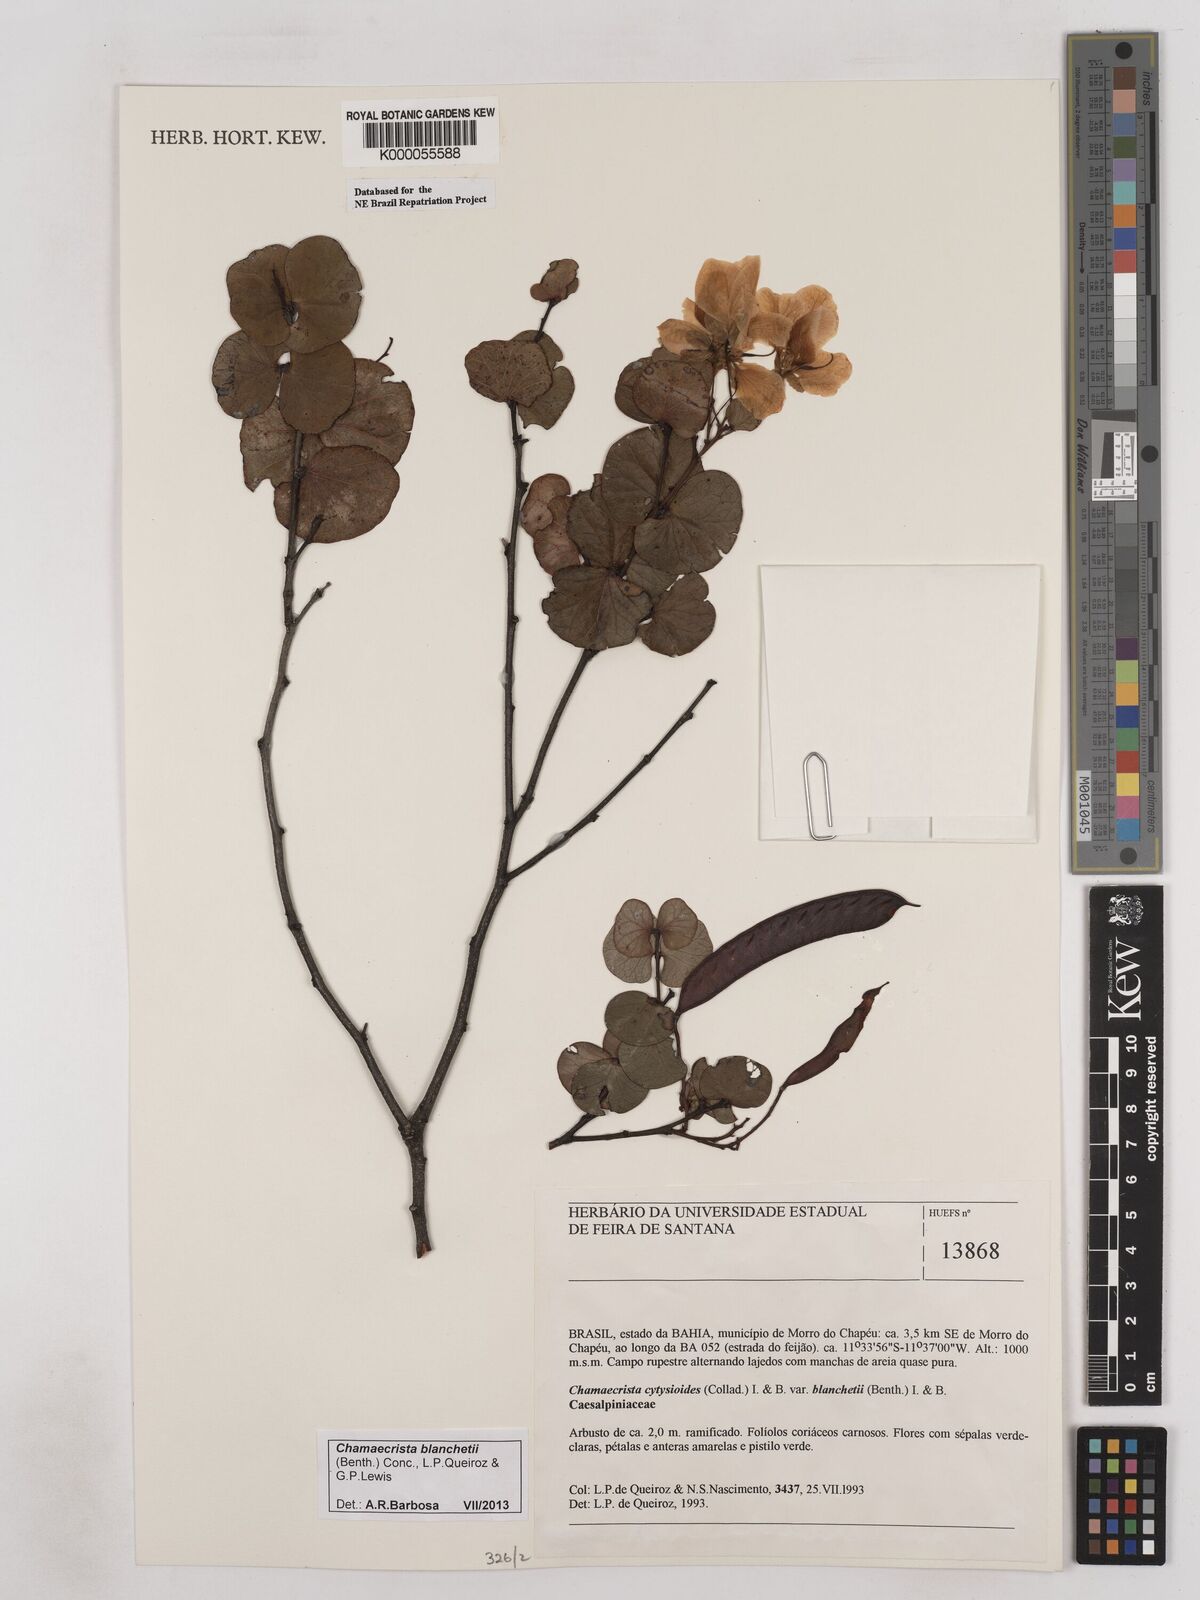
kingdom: Plantae
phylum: Tracheophyta
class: Magnoliopsida
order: Fabales
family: Fabaceae
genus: Chamaecrista
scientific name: Chamaecrista cytisoides
